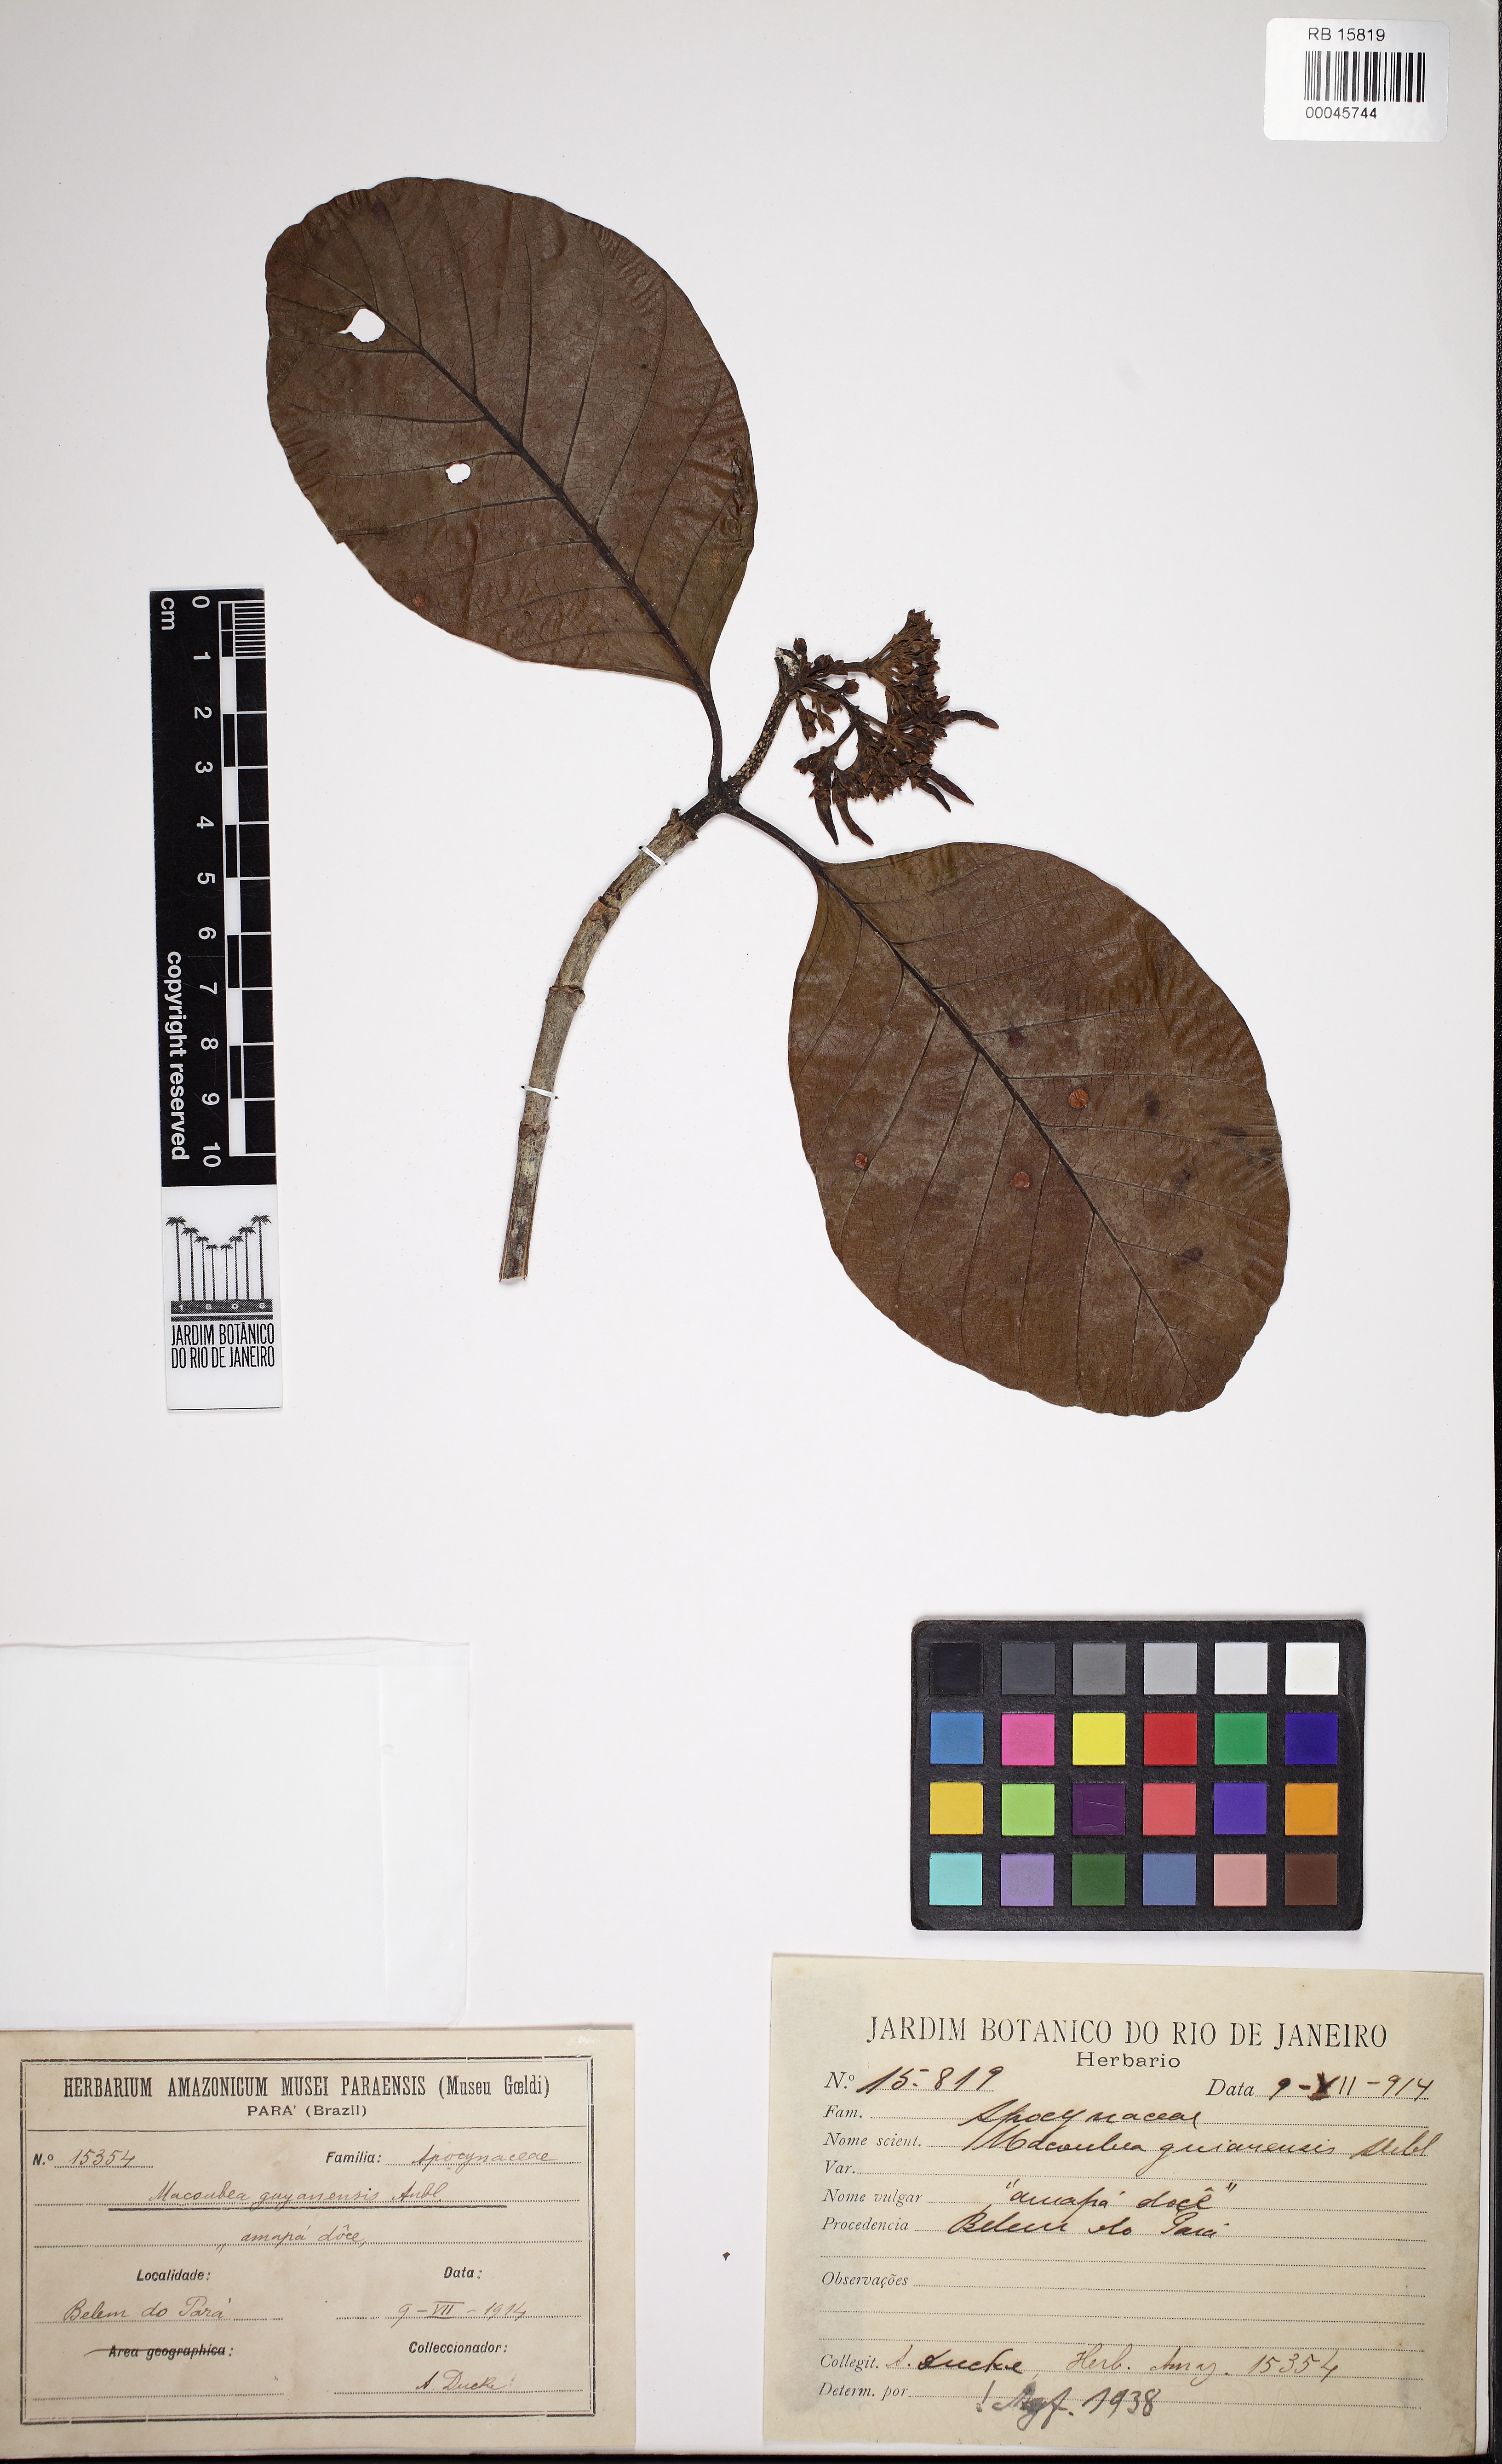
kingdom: Plantae
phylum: Tracheophyta
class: Magnoliopsida
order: Gentianales
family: Apocynaceae
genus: Macoubea
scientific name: Macoubea guianensis
